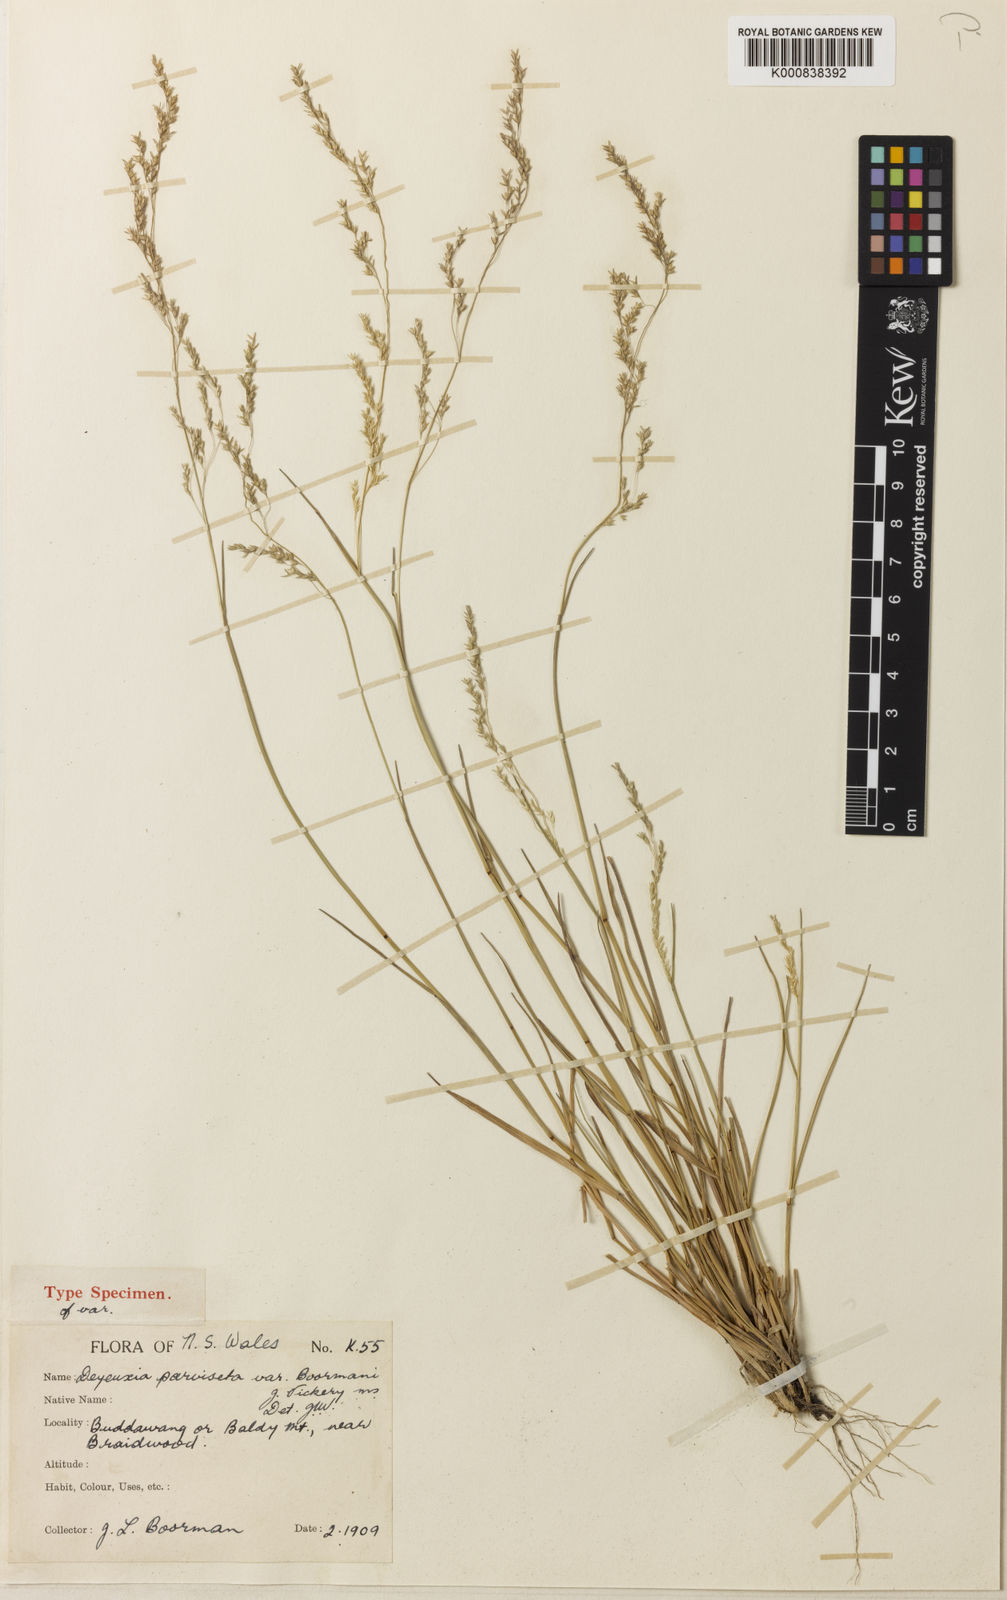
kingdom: Plantae
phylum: Tracheophyta
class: Liliopsida
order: Poales
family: Poaceae
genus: Calamagrostis
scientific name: Calamagrostis parviseta
